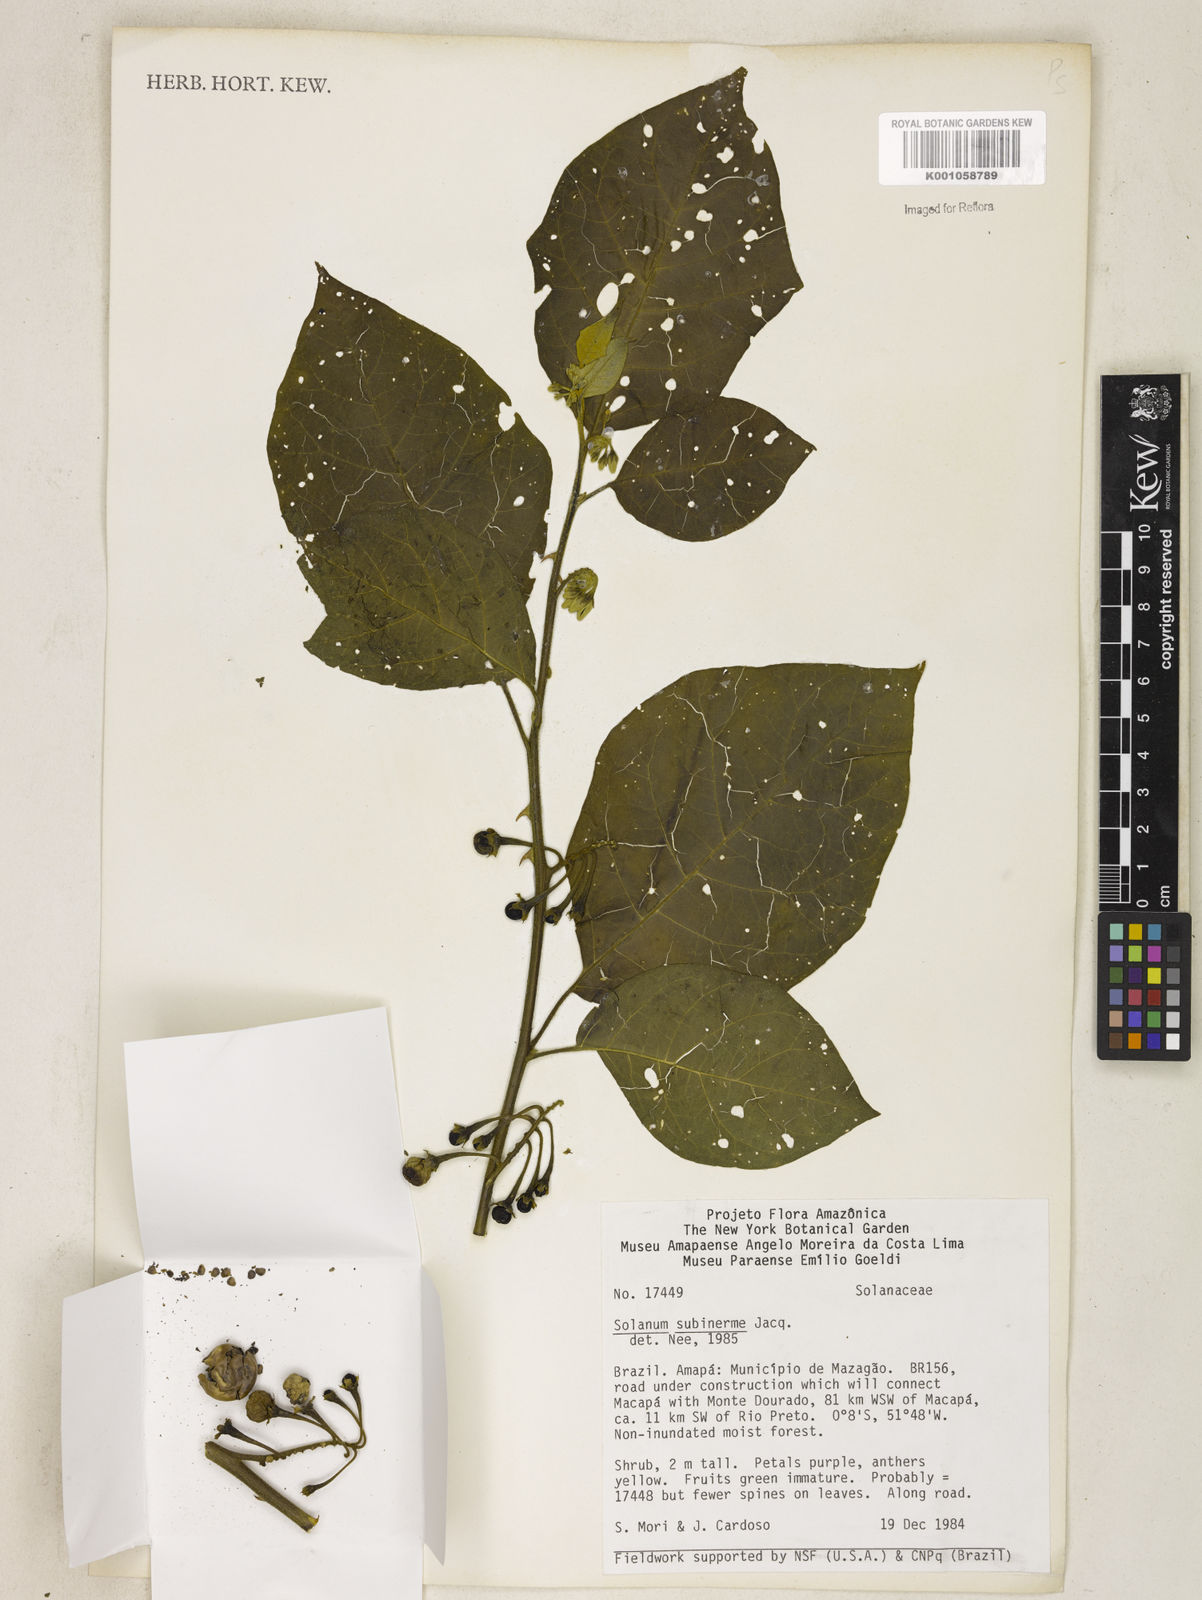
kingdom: Plantae
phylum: Tracheophyta
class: Magnoliopsida
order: Solanales
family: Solanaceae
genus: Solanum
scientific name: Solanum subinerme
